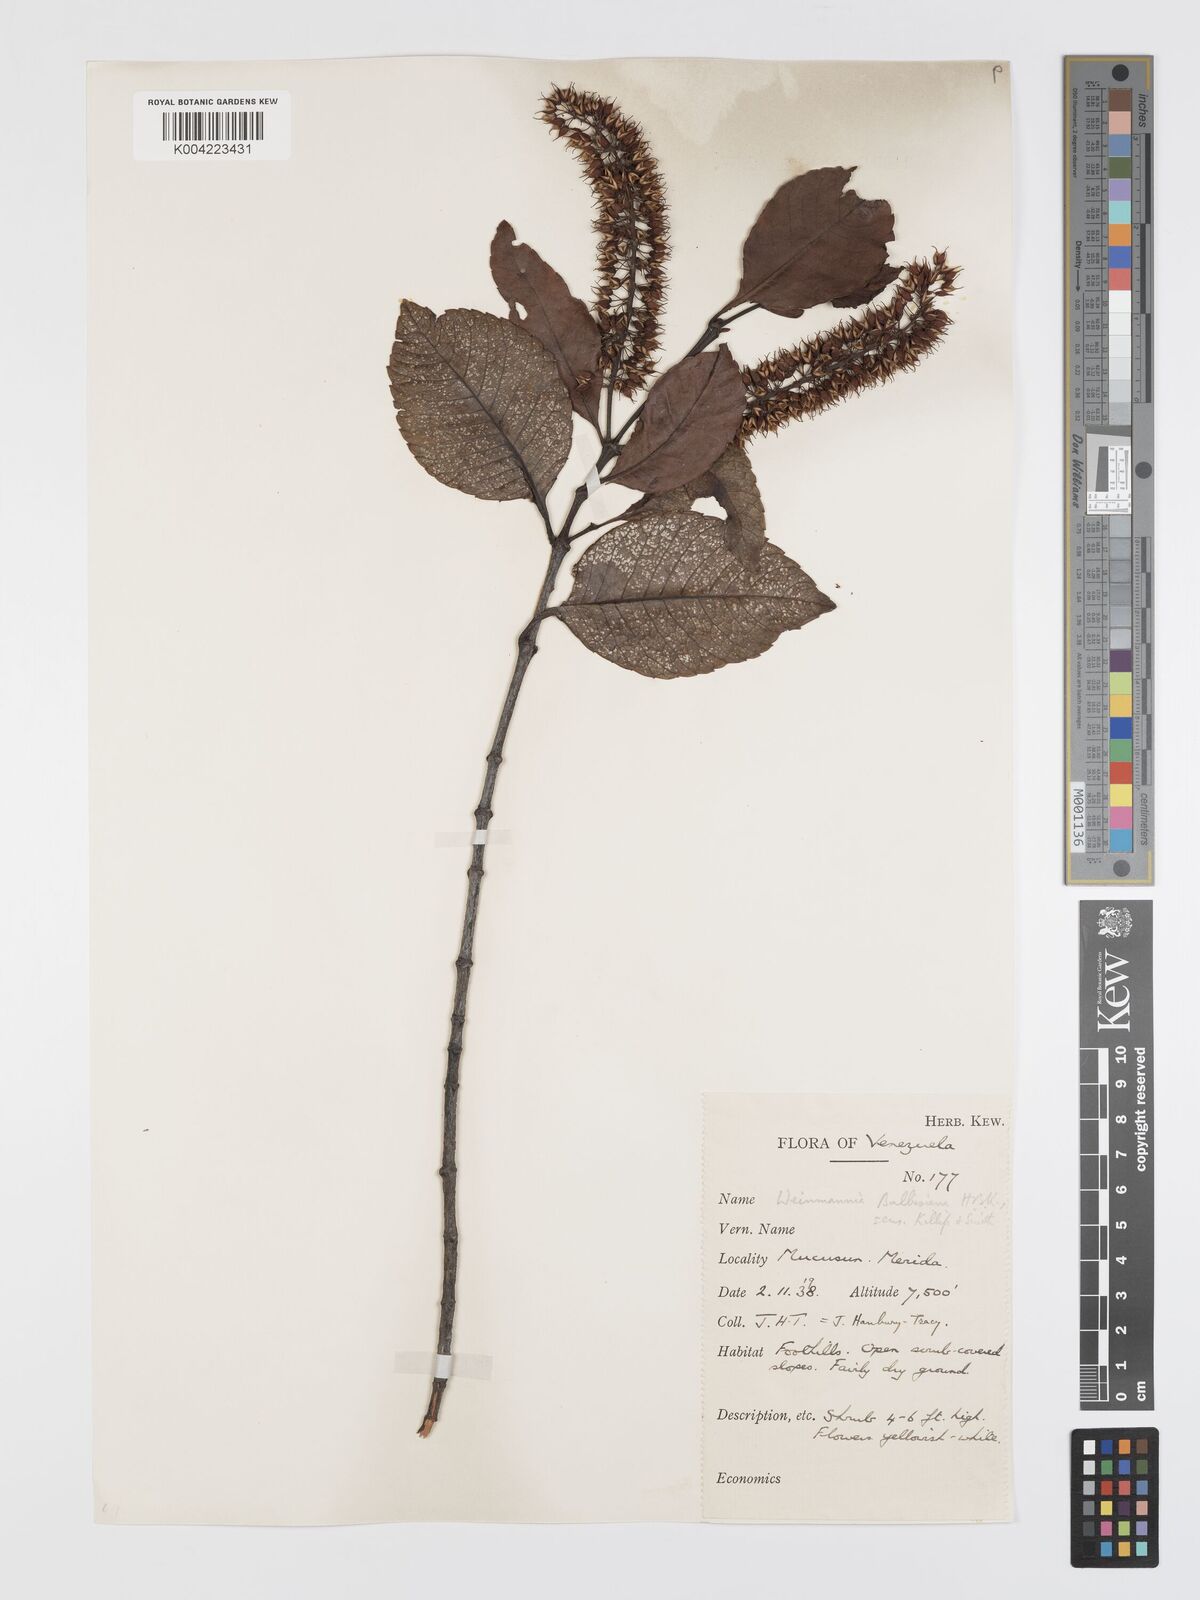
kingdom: Plantae
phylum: Tracheophyta
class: Magnoliopsida
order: Oxalidales
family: Cunoniaceae
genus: Weinmannia
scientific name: Weinmannia balbisana
